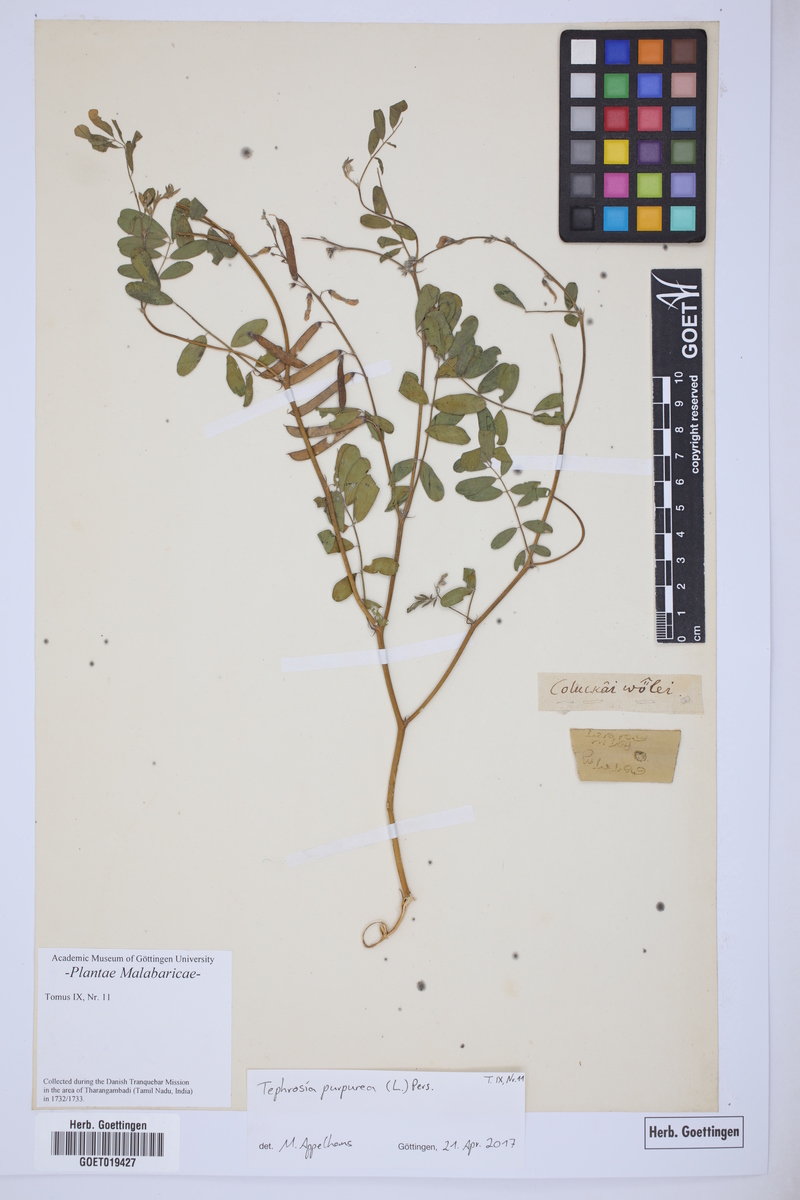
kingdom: Plantae
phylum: Tracheophyta
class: Magnoliopsida
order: Fabales
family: Fabaceae
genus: Tephrosia
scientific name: Tephrosia purpurea
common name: Fishpoison
